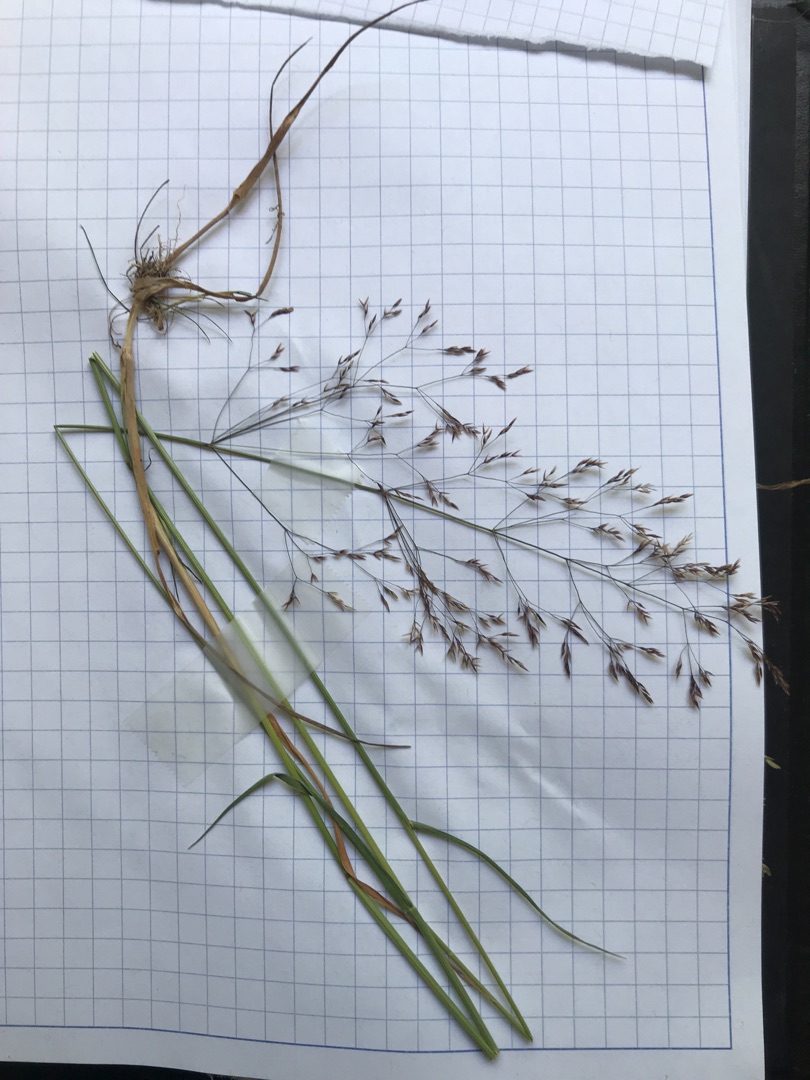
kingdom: Plantae
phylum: Tracheophyta
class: Liliopsida
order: Poales
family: Poaceae
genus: Agrostis
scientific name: Agrostis capillaris
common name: Almindelig hvene
